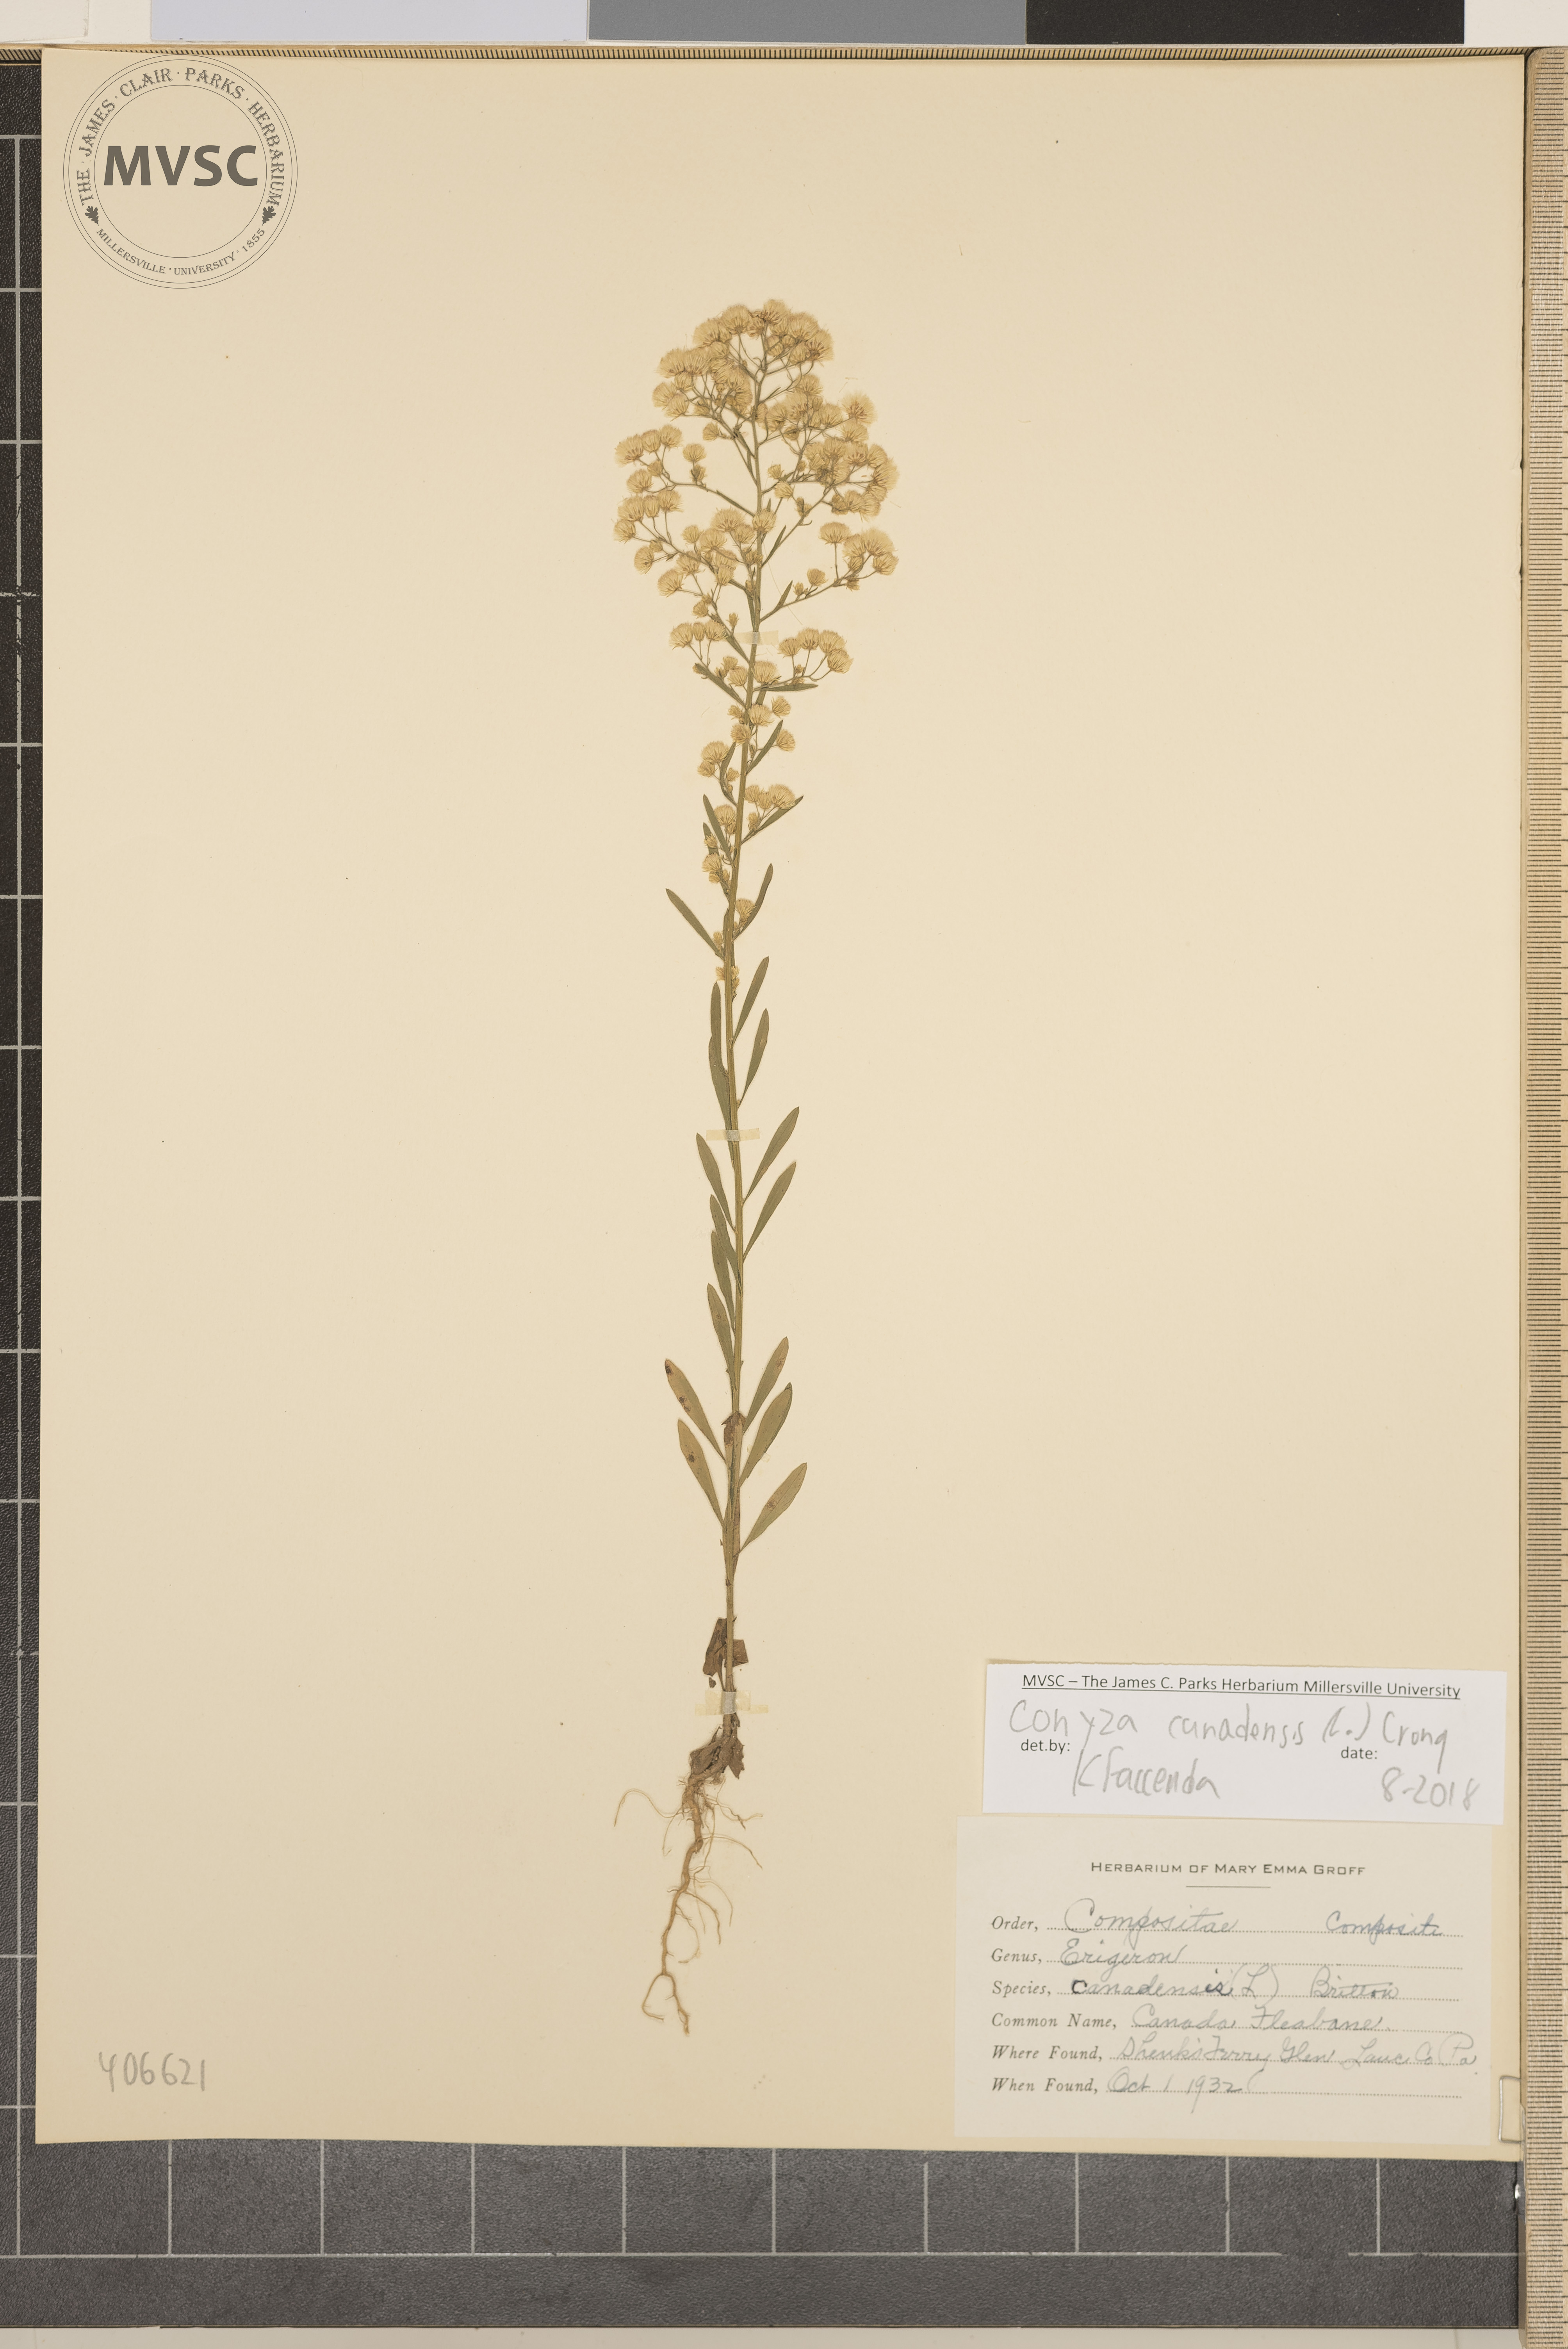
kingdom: Plantae
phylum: Tracheophyta
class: Magnoliopsida
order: Asterales
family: Asteraceae
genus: Erigeron
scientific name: Erigeron canadensis
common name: Canada Fleabane
